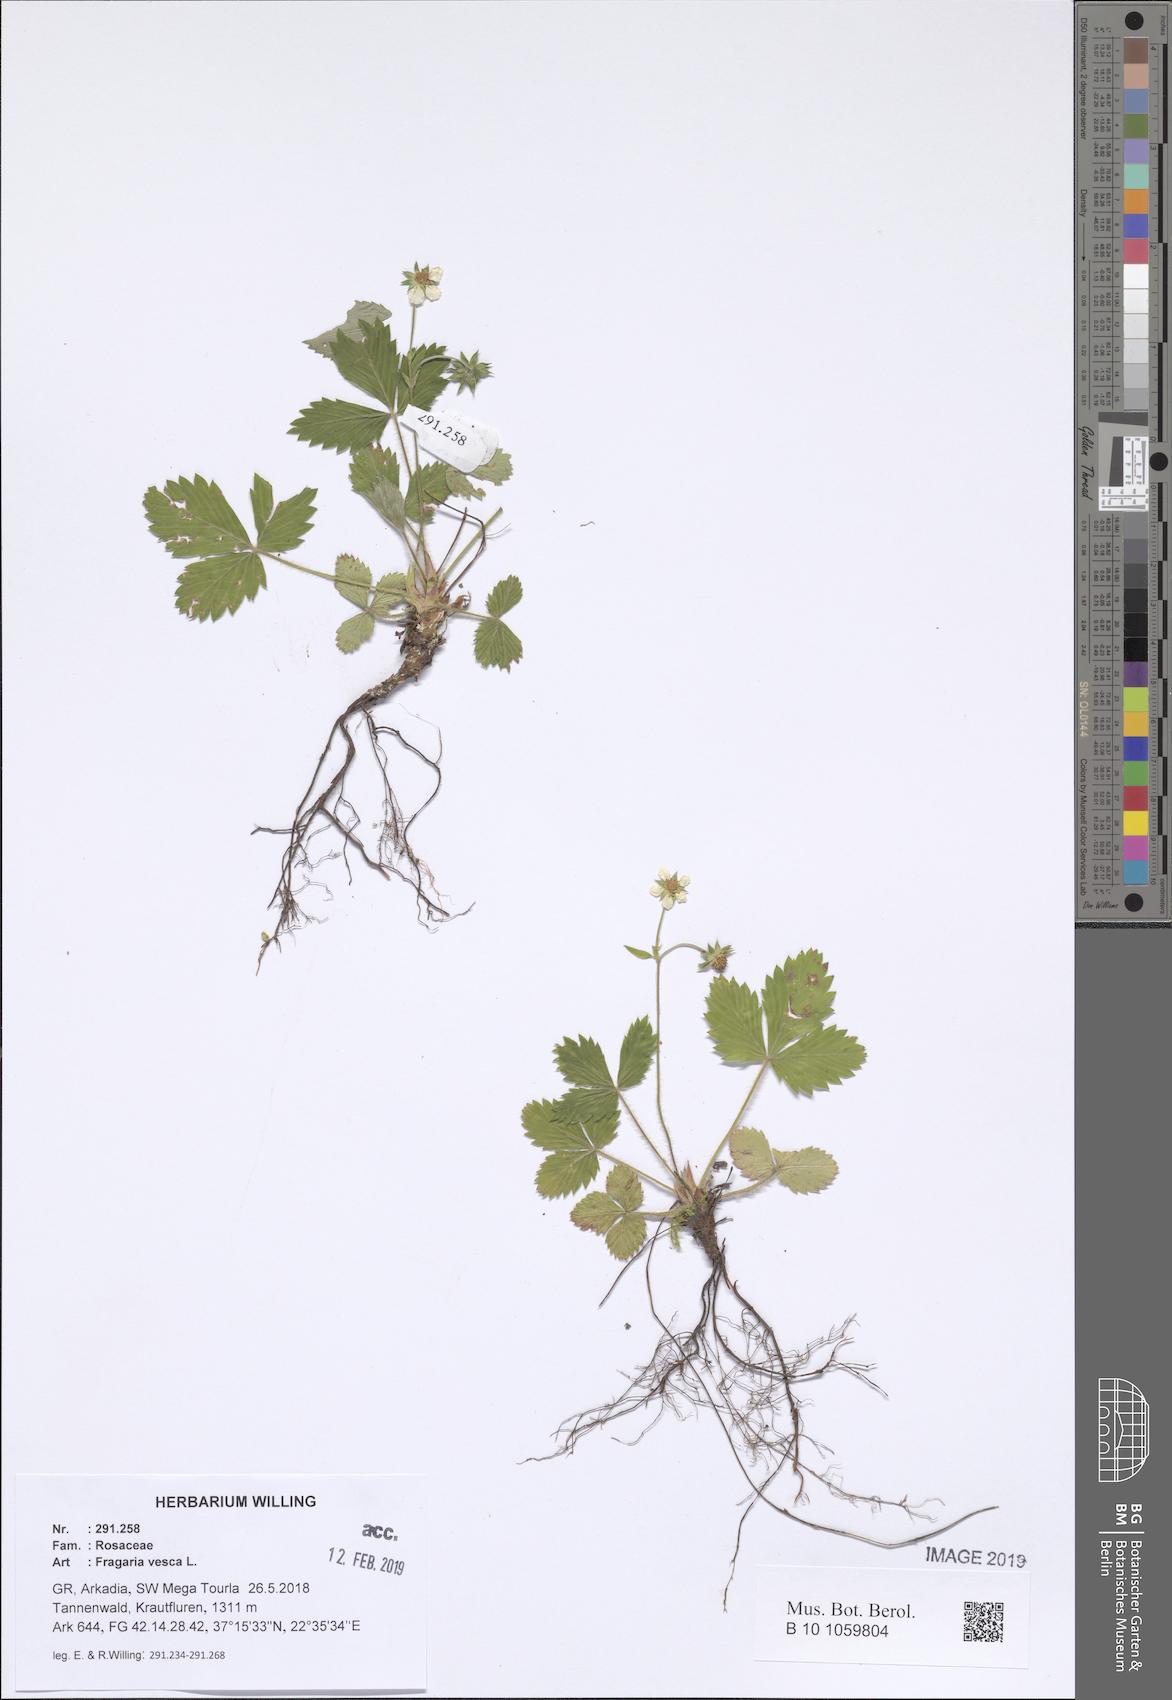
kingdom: Plantae
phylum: Tracheophyta
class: Magnoliopsida
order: Rosales
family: Rosaceae
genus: Fragaria
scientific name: Fragaria vesca
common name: Wild strawberry
